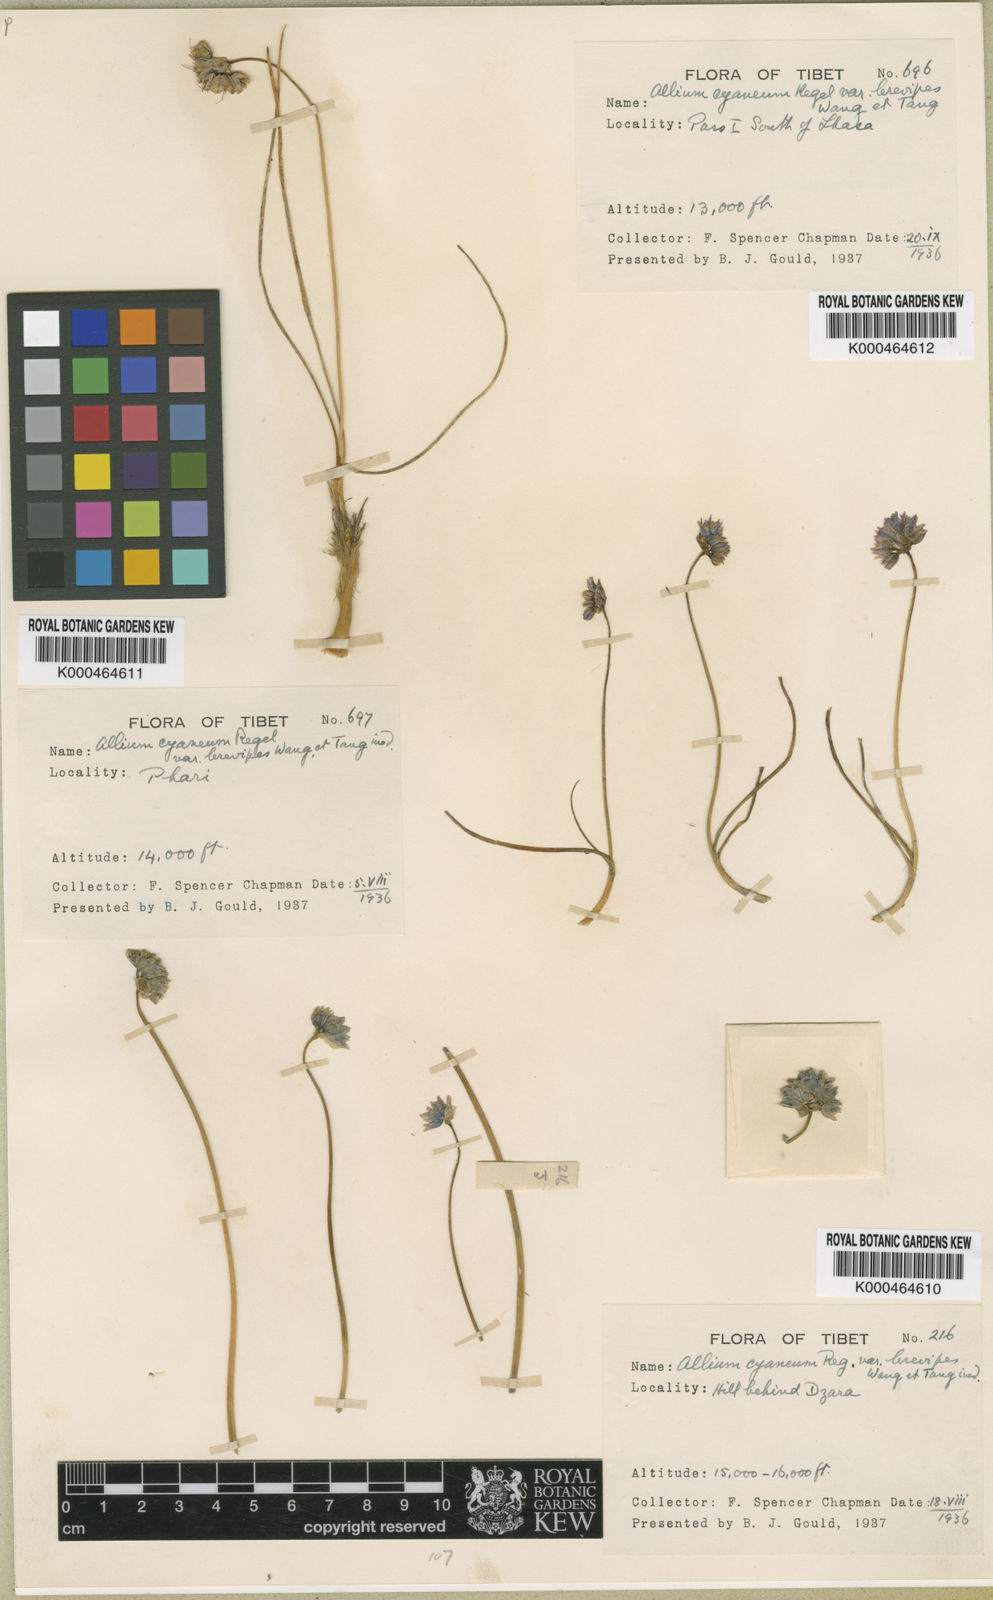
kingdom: Plantae
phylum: Tracheophyta
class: Liliopsida
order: Asparagales
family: Amaryllidaceae
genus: Allium
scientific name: Allium cyaneum
